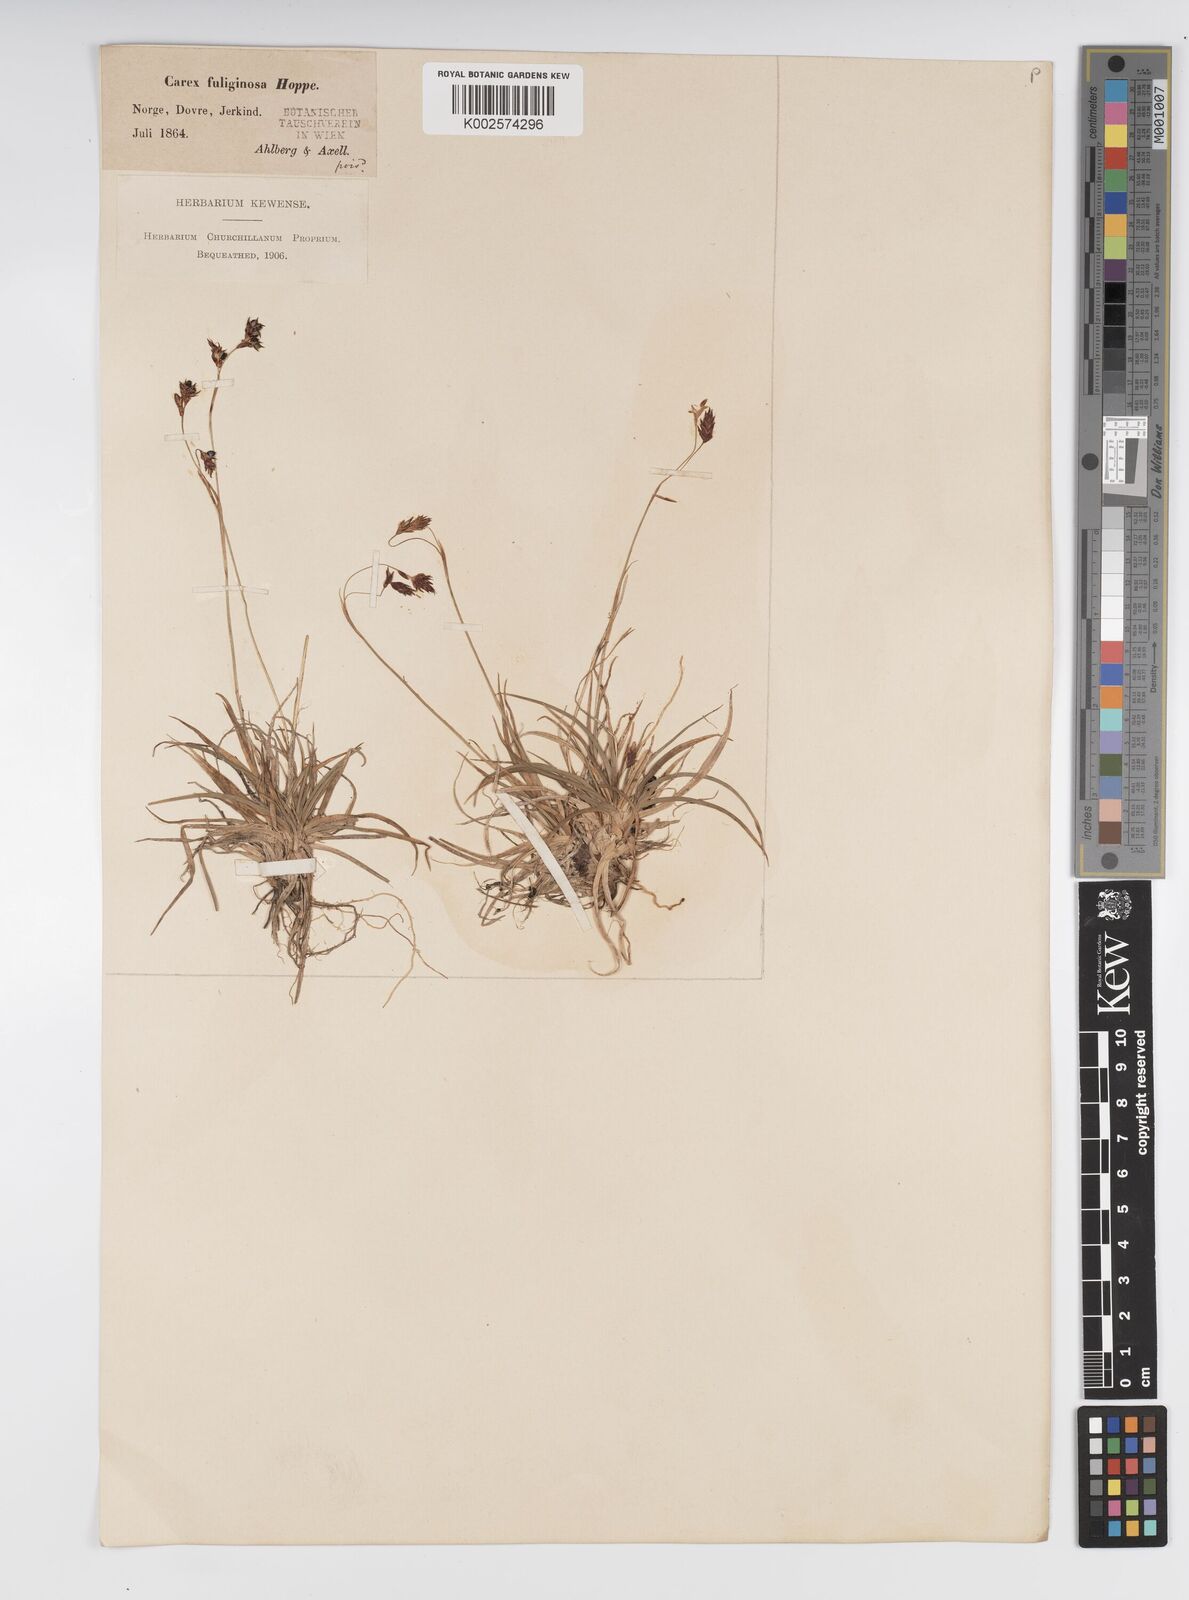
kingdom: Plantae
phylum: Tracheophyta
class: Liliopsida
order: Poales
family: Cyperaceae
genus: Carex
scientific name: Carex fuliginosa
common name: Few-flowered sedge
